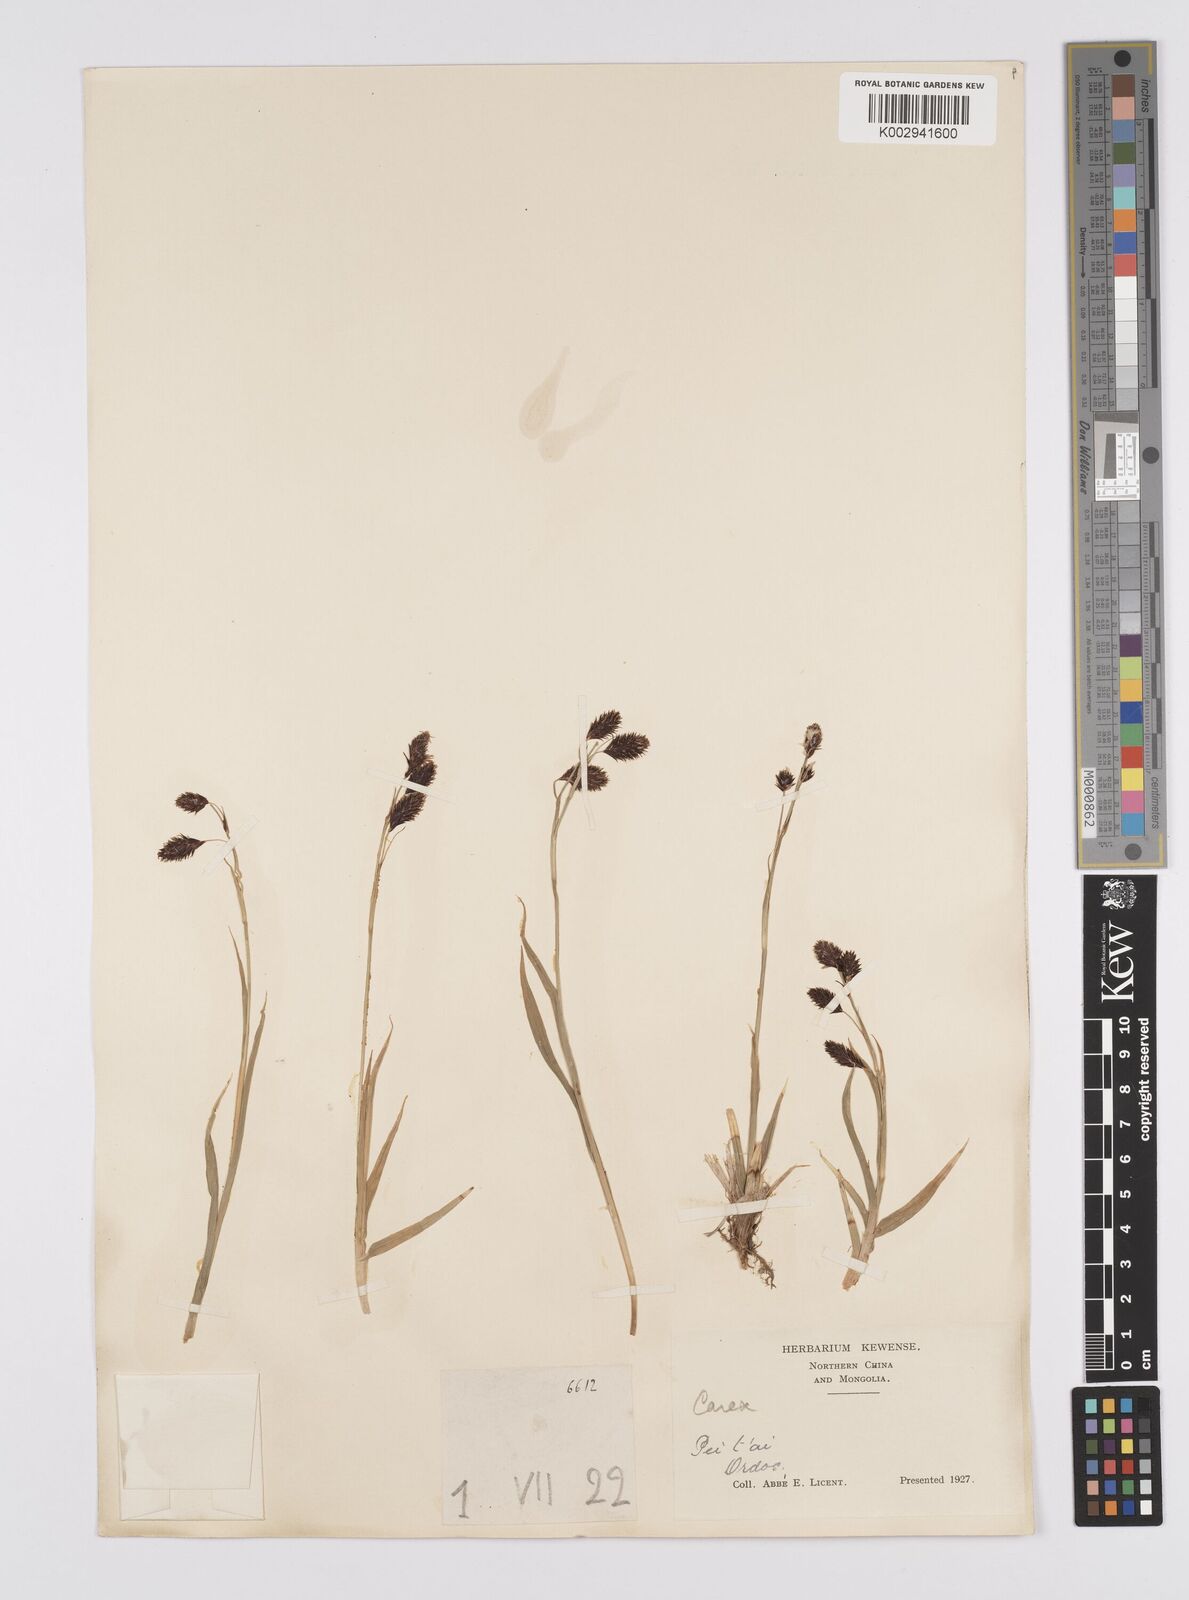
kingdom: Plantae
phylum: Tracheophyta
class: Liliopsida
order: Poales
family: Cyperaceae
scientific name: Cyperaceae
